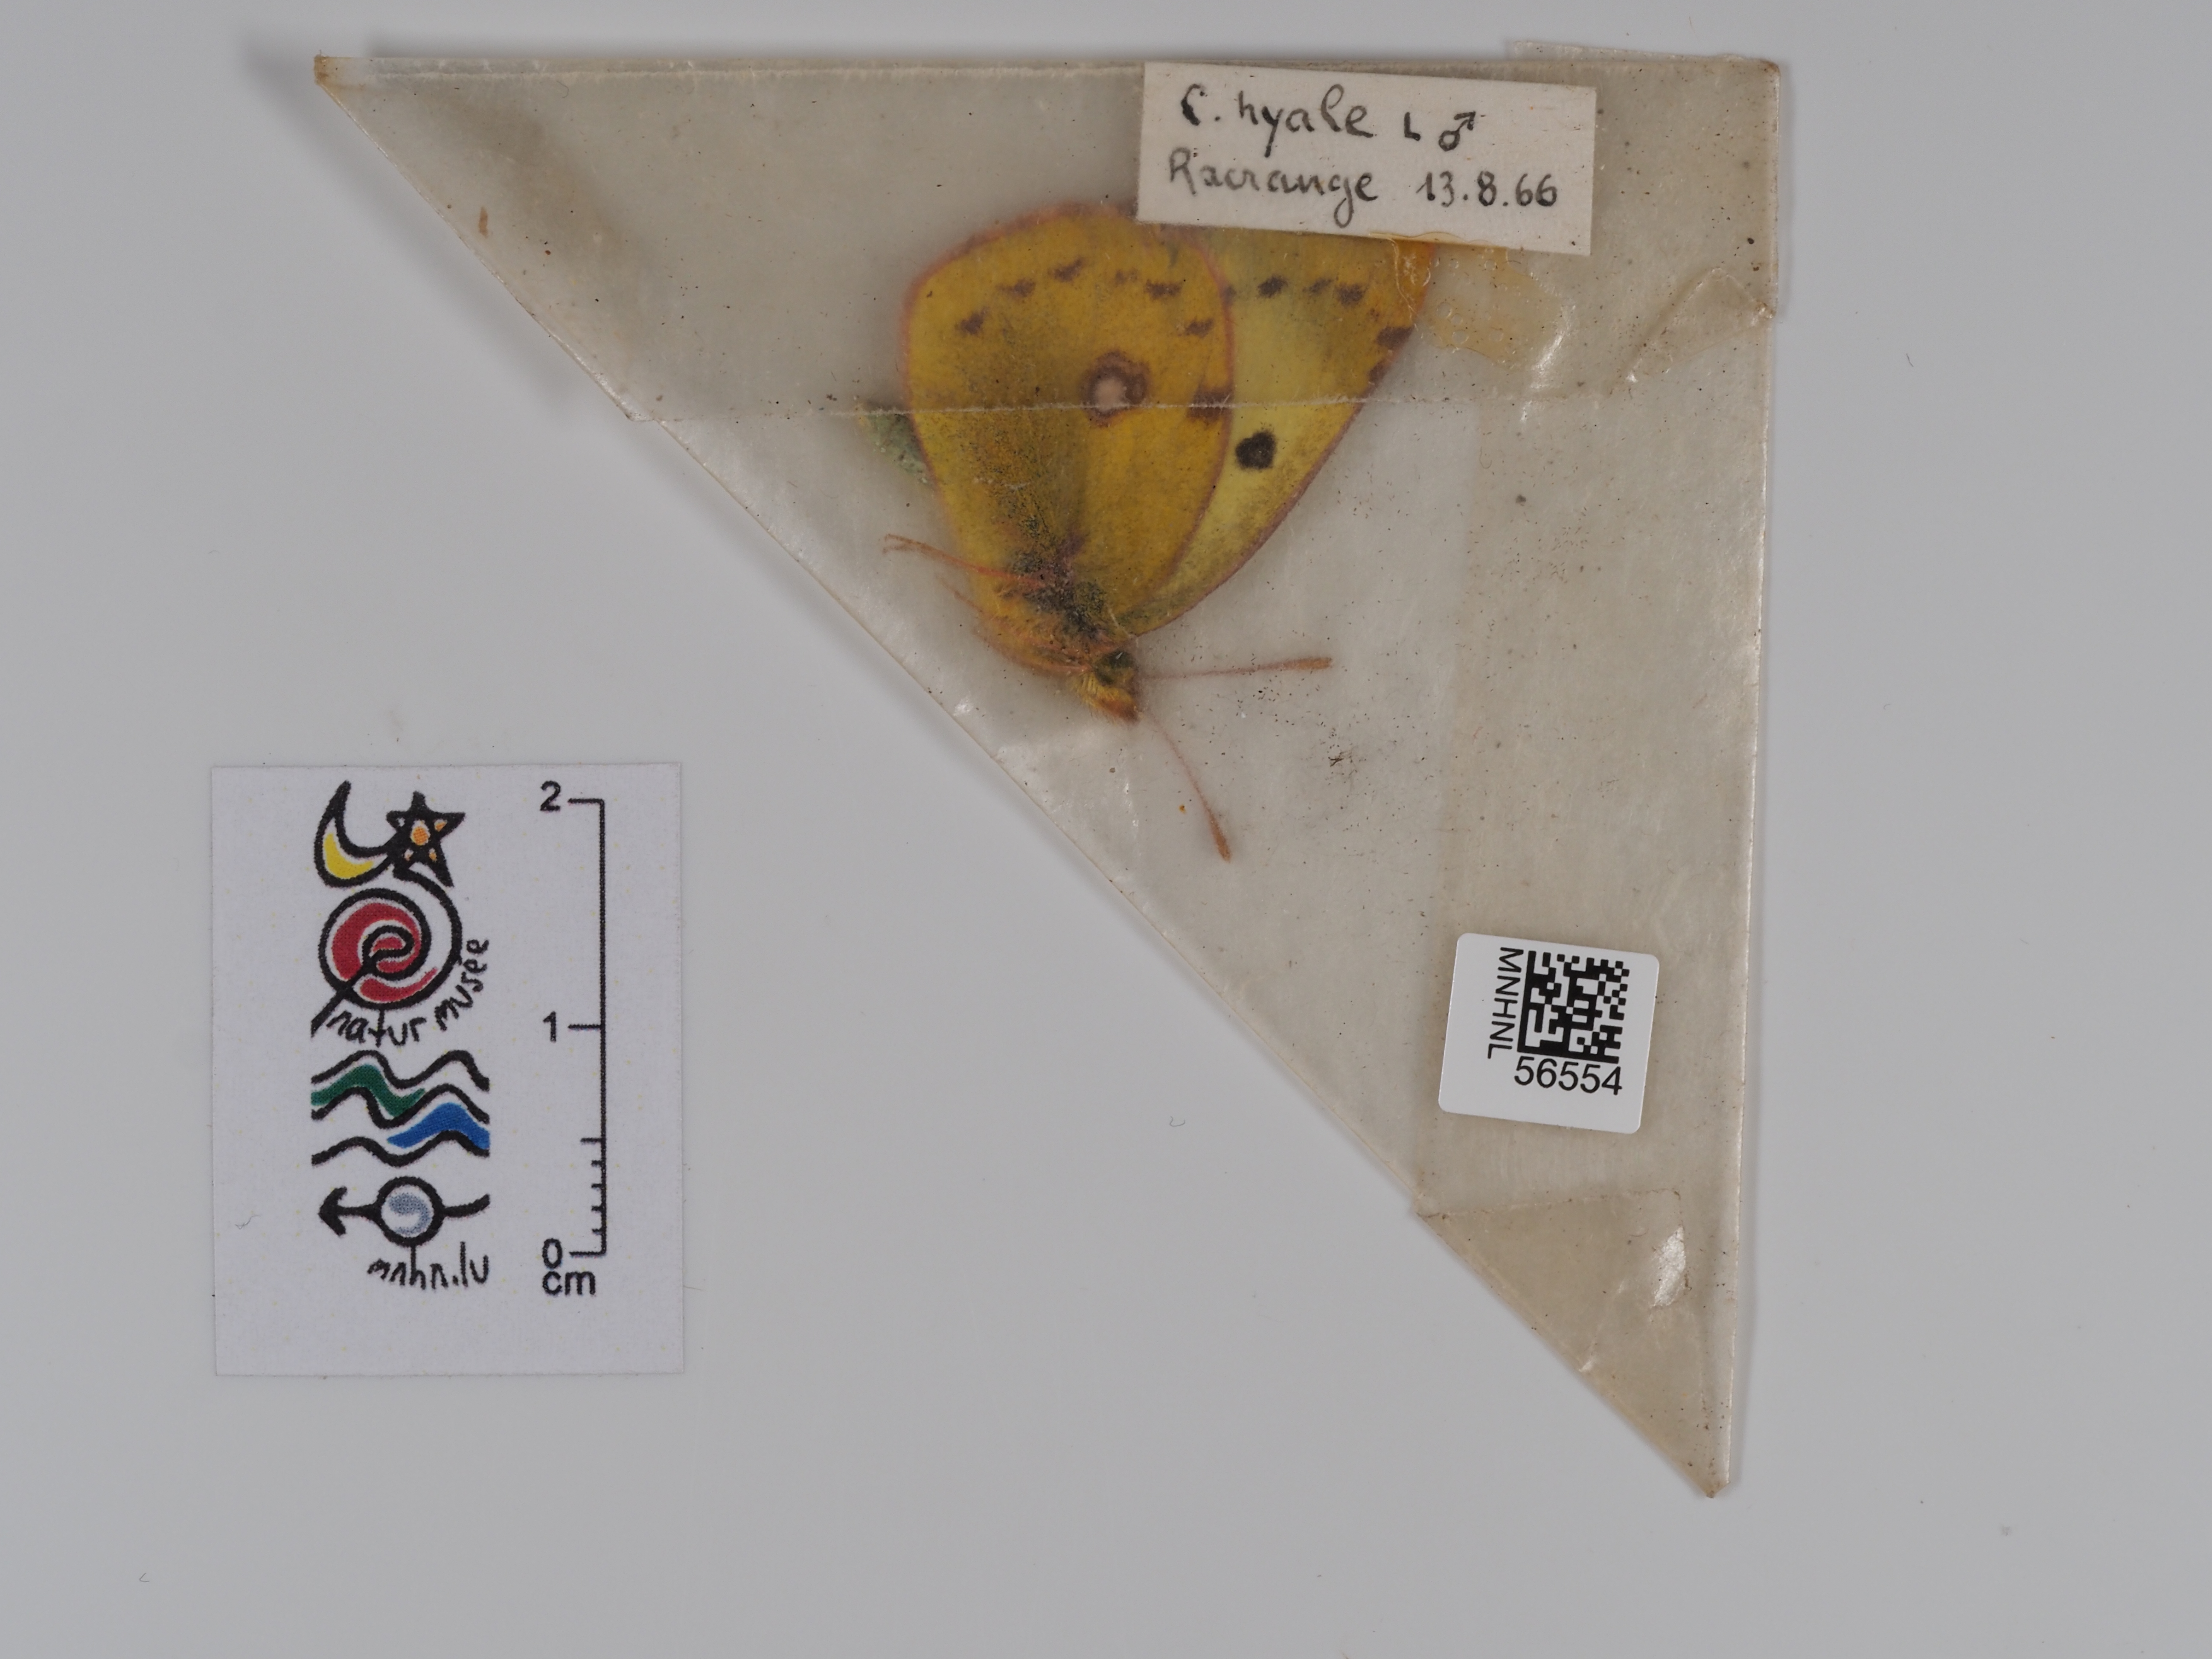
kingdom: Animalia
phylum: Arthropoda
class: Insecta
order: Lepidoptera
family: Pieridae
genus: Colias
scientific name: Colias hyale
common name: Pale clouded yellow
